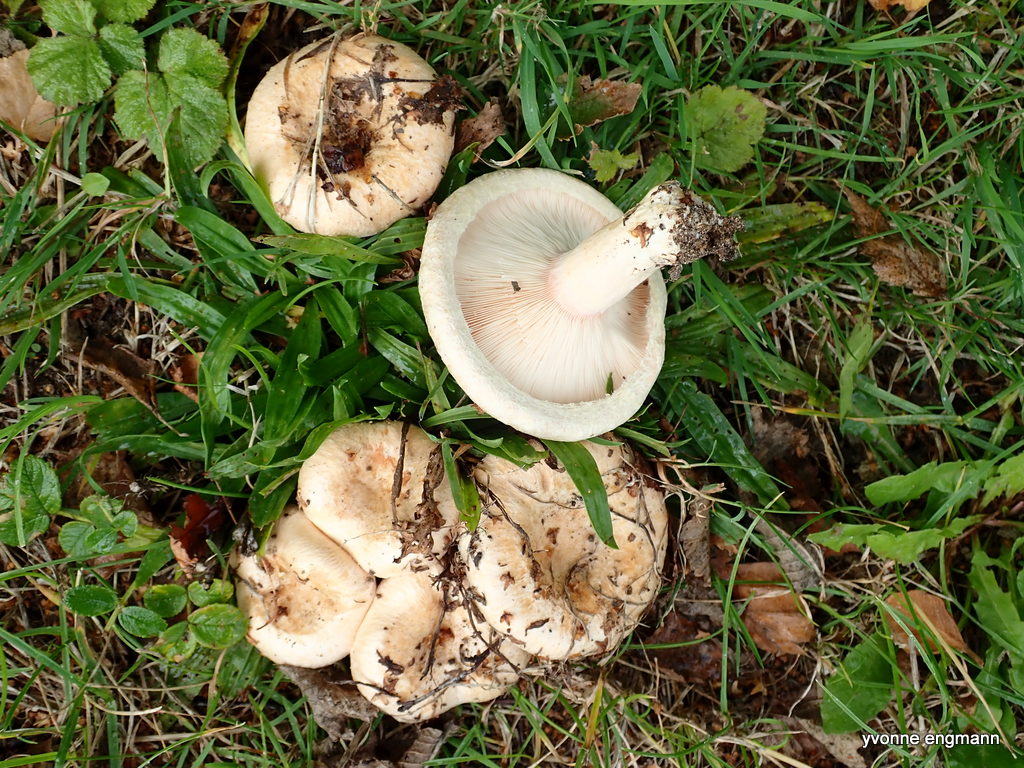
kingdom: Fungi
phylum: Basidiomycota
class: Agaricomycetes
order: Russulales
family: Russulaceae
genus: Lactarius
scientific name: Lactarius pubescens
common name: dunet mælkehat
